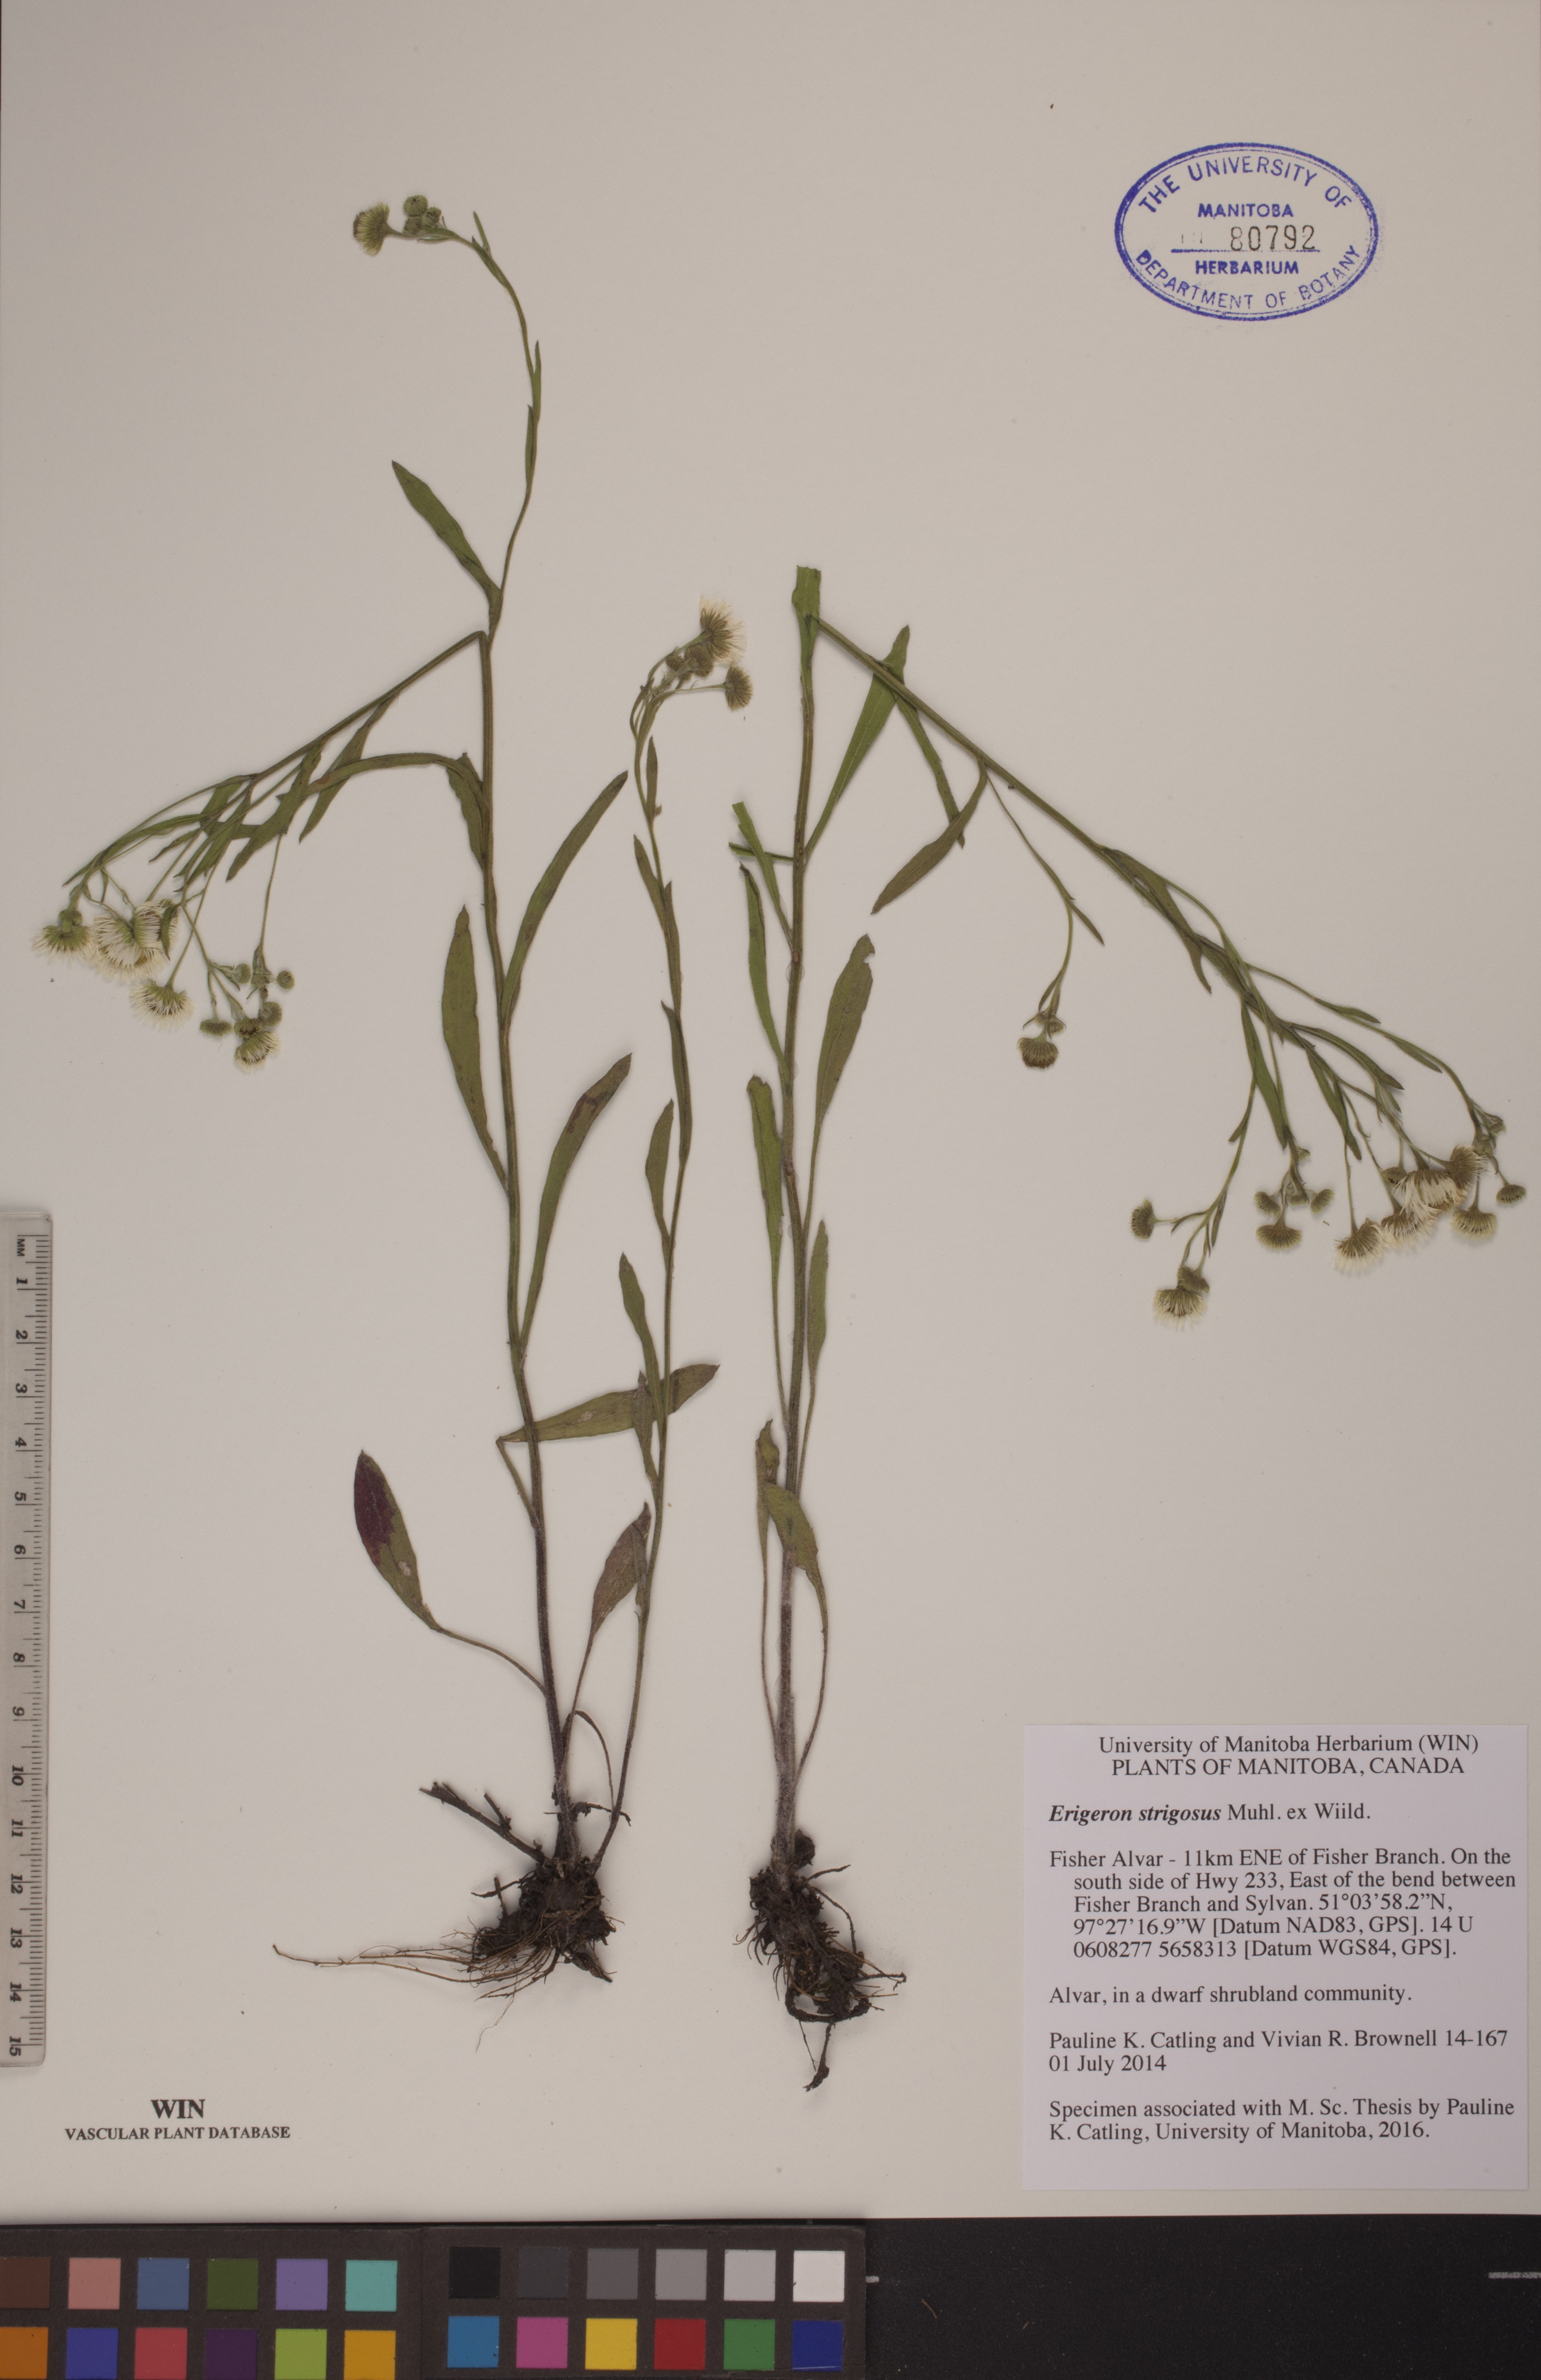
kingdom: Plantae
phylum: Tracheophyta
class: Magnoliopsida
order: Asterales
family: Asteraceae
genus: Erigeron
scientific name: Erigeron strigosus
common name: Common eastern fleabane
